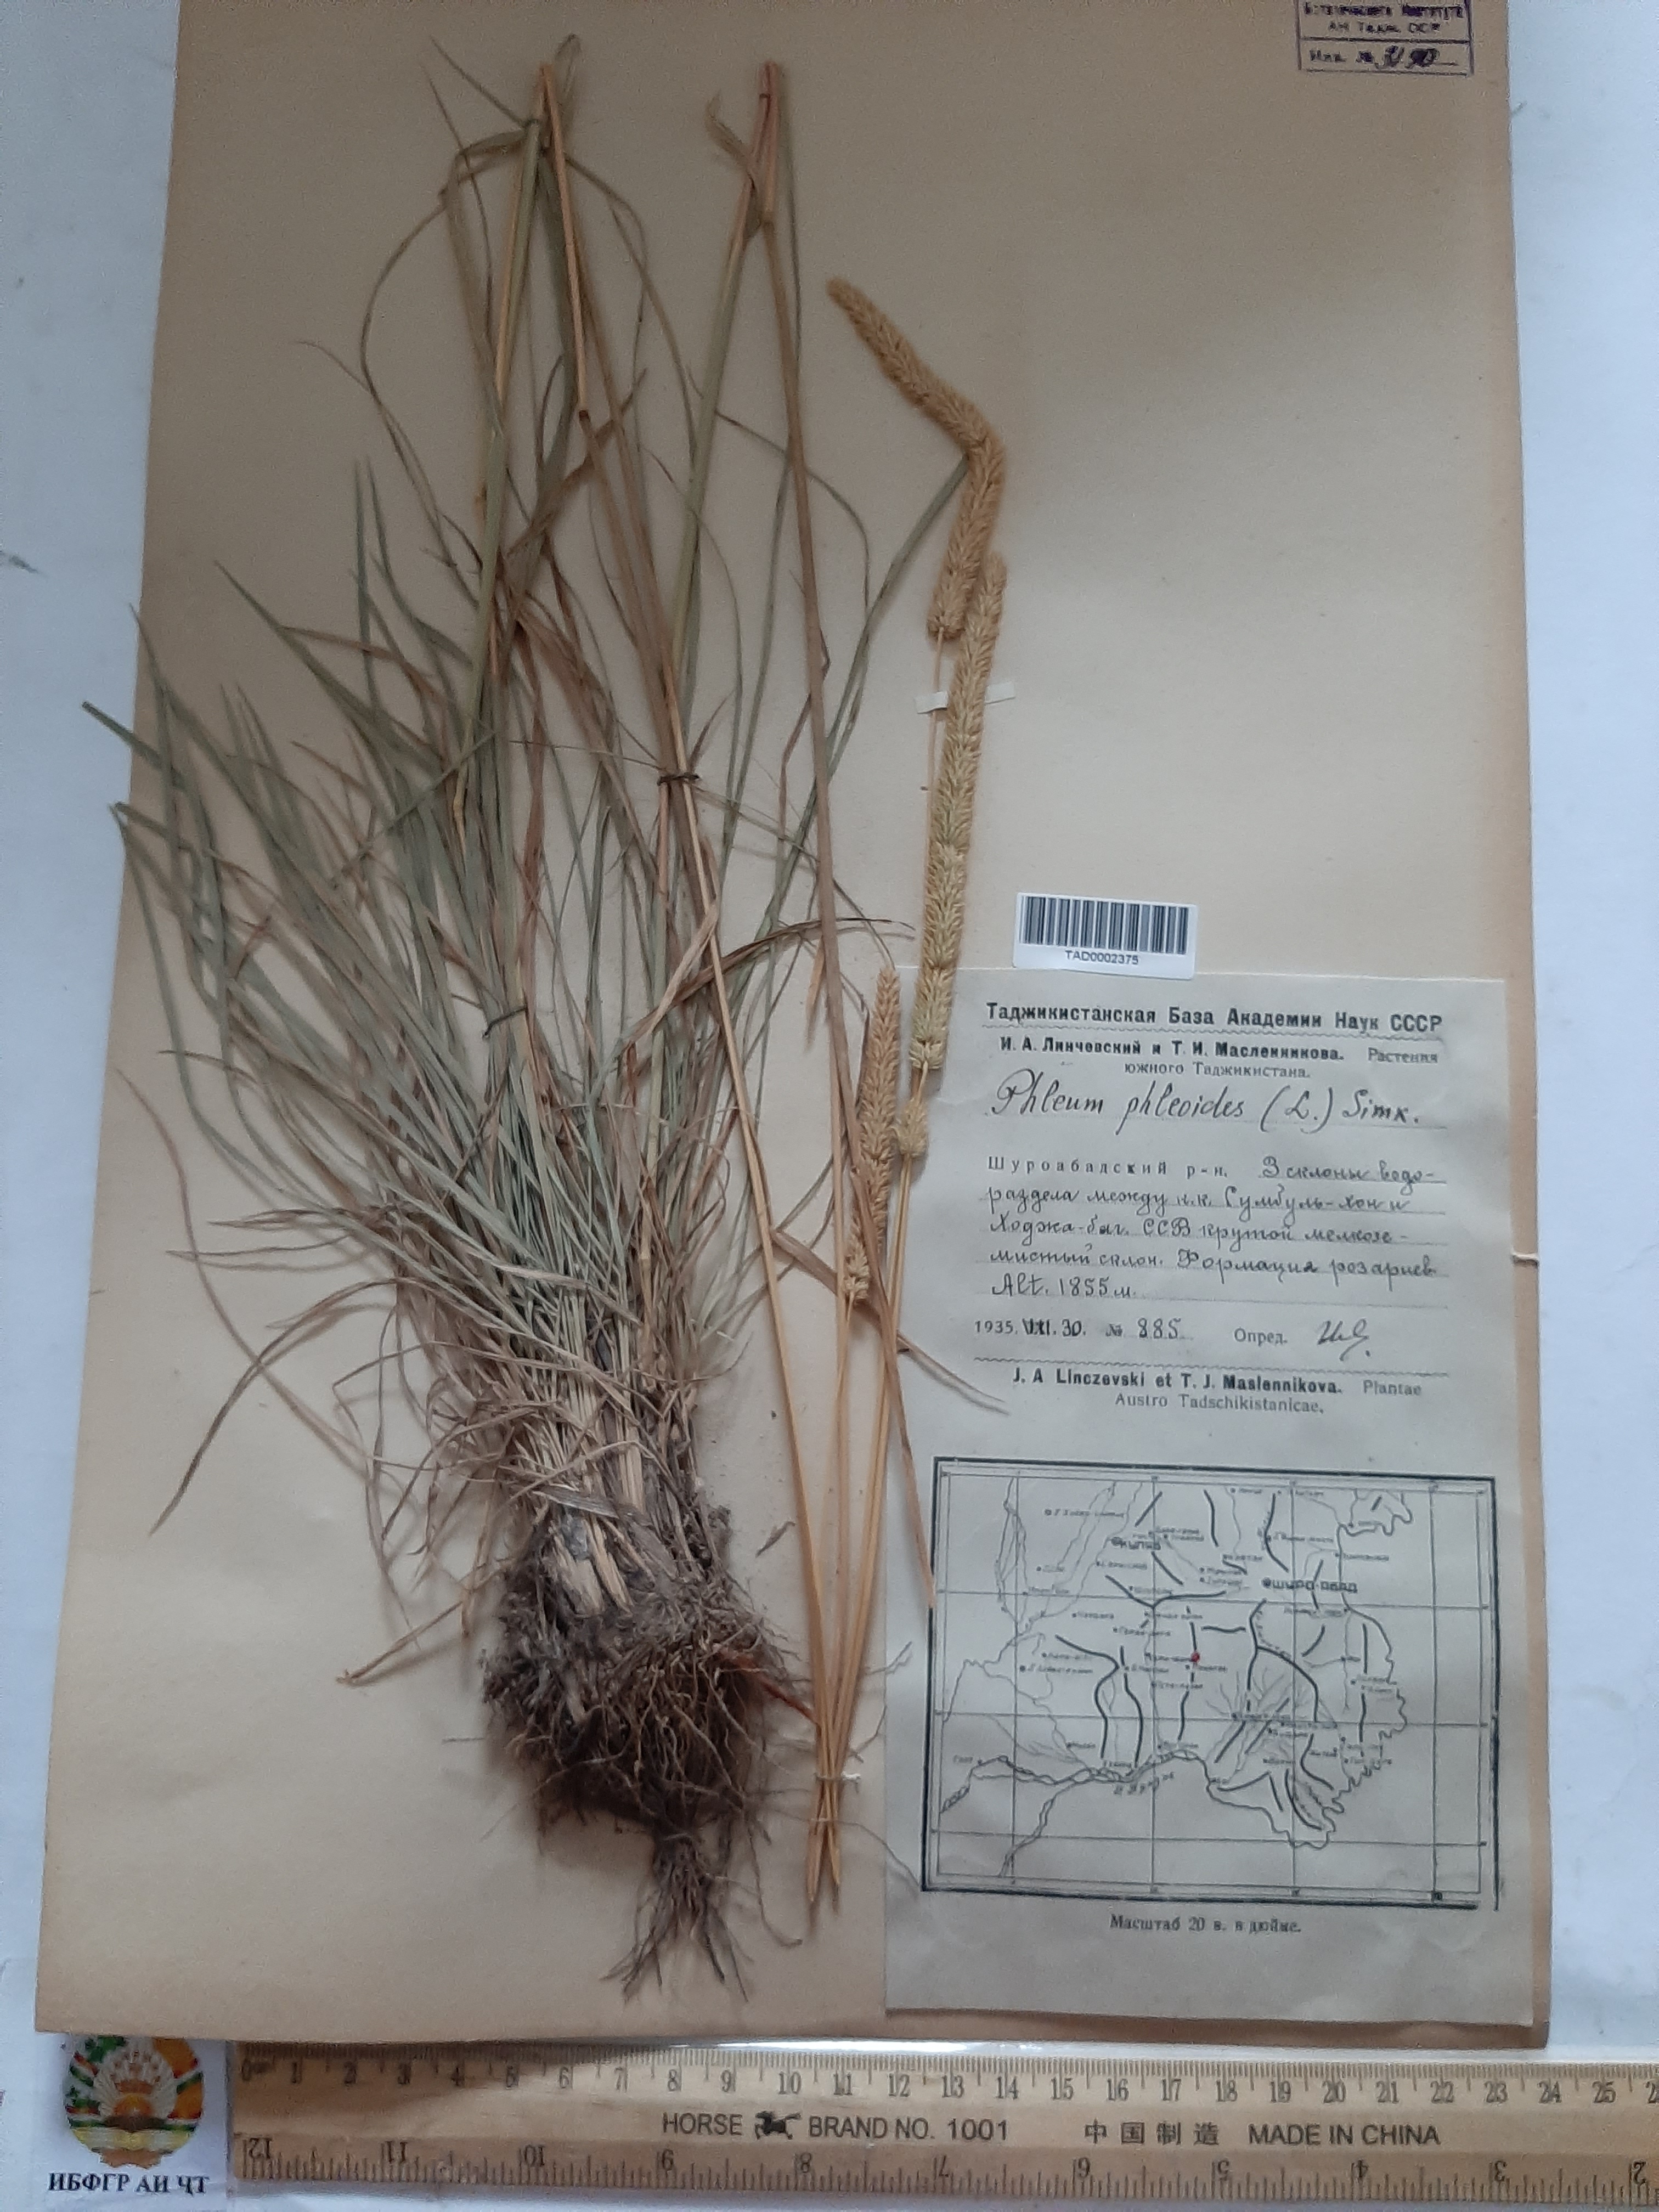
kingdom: Plantae
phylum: Tracheophyta
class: Liliopsida
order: Poales
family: Poaceae
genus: Phleum
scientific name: Phleum phleoides
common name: Purple-stem cat's-tail
